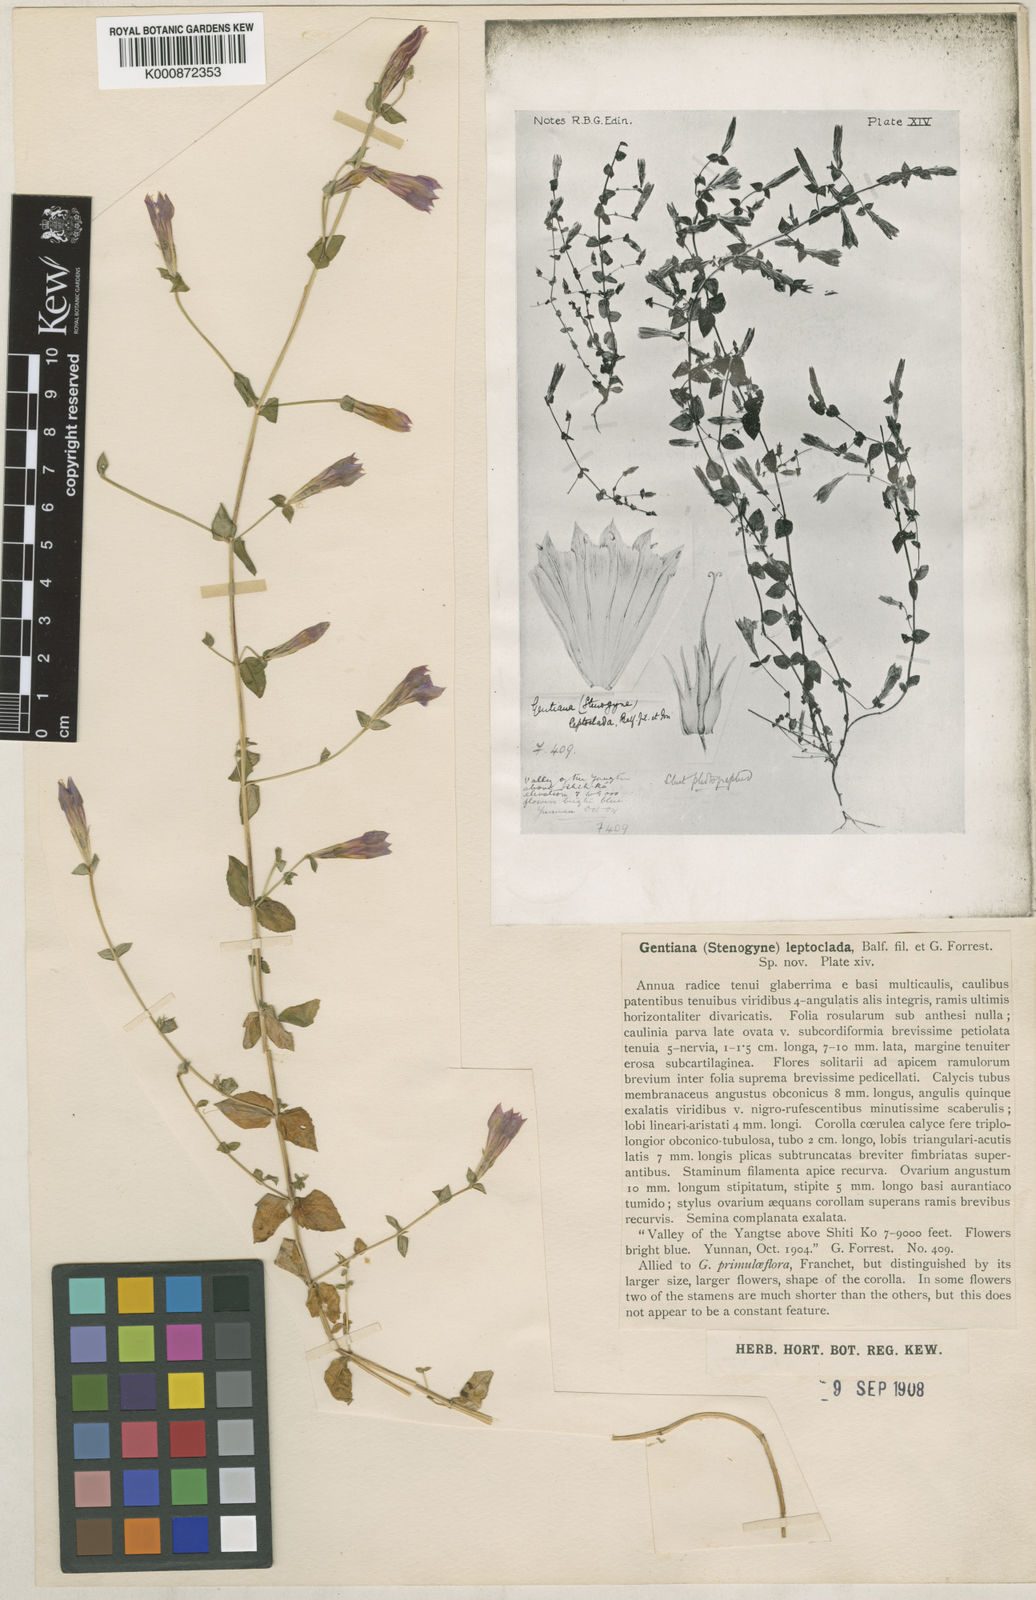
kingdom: Plantae
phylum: Tracheophyta
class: Magnoliopsida
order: Gentianales
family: Gentianaceae
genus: Metagentiana
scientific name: Metagentiana leptoclada
